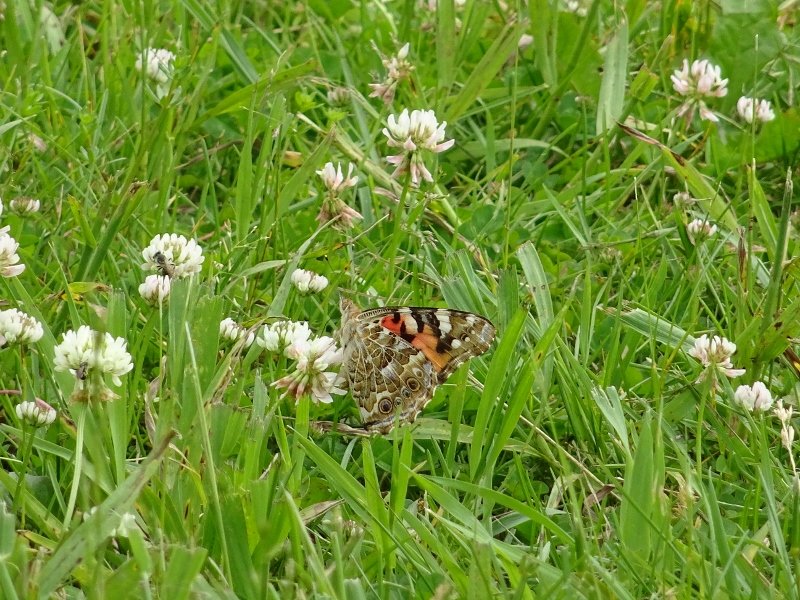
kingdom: Animalia
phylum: Arthropoda
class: Insecta
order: Lepidoptera
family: Nymphalidae
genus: Vanessa
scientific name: Vanessa cardui
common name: Painted Lady
